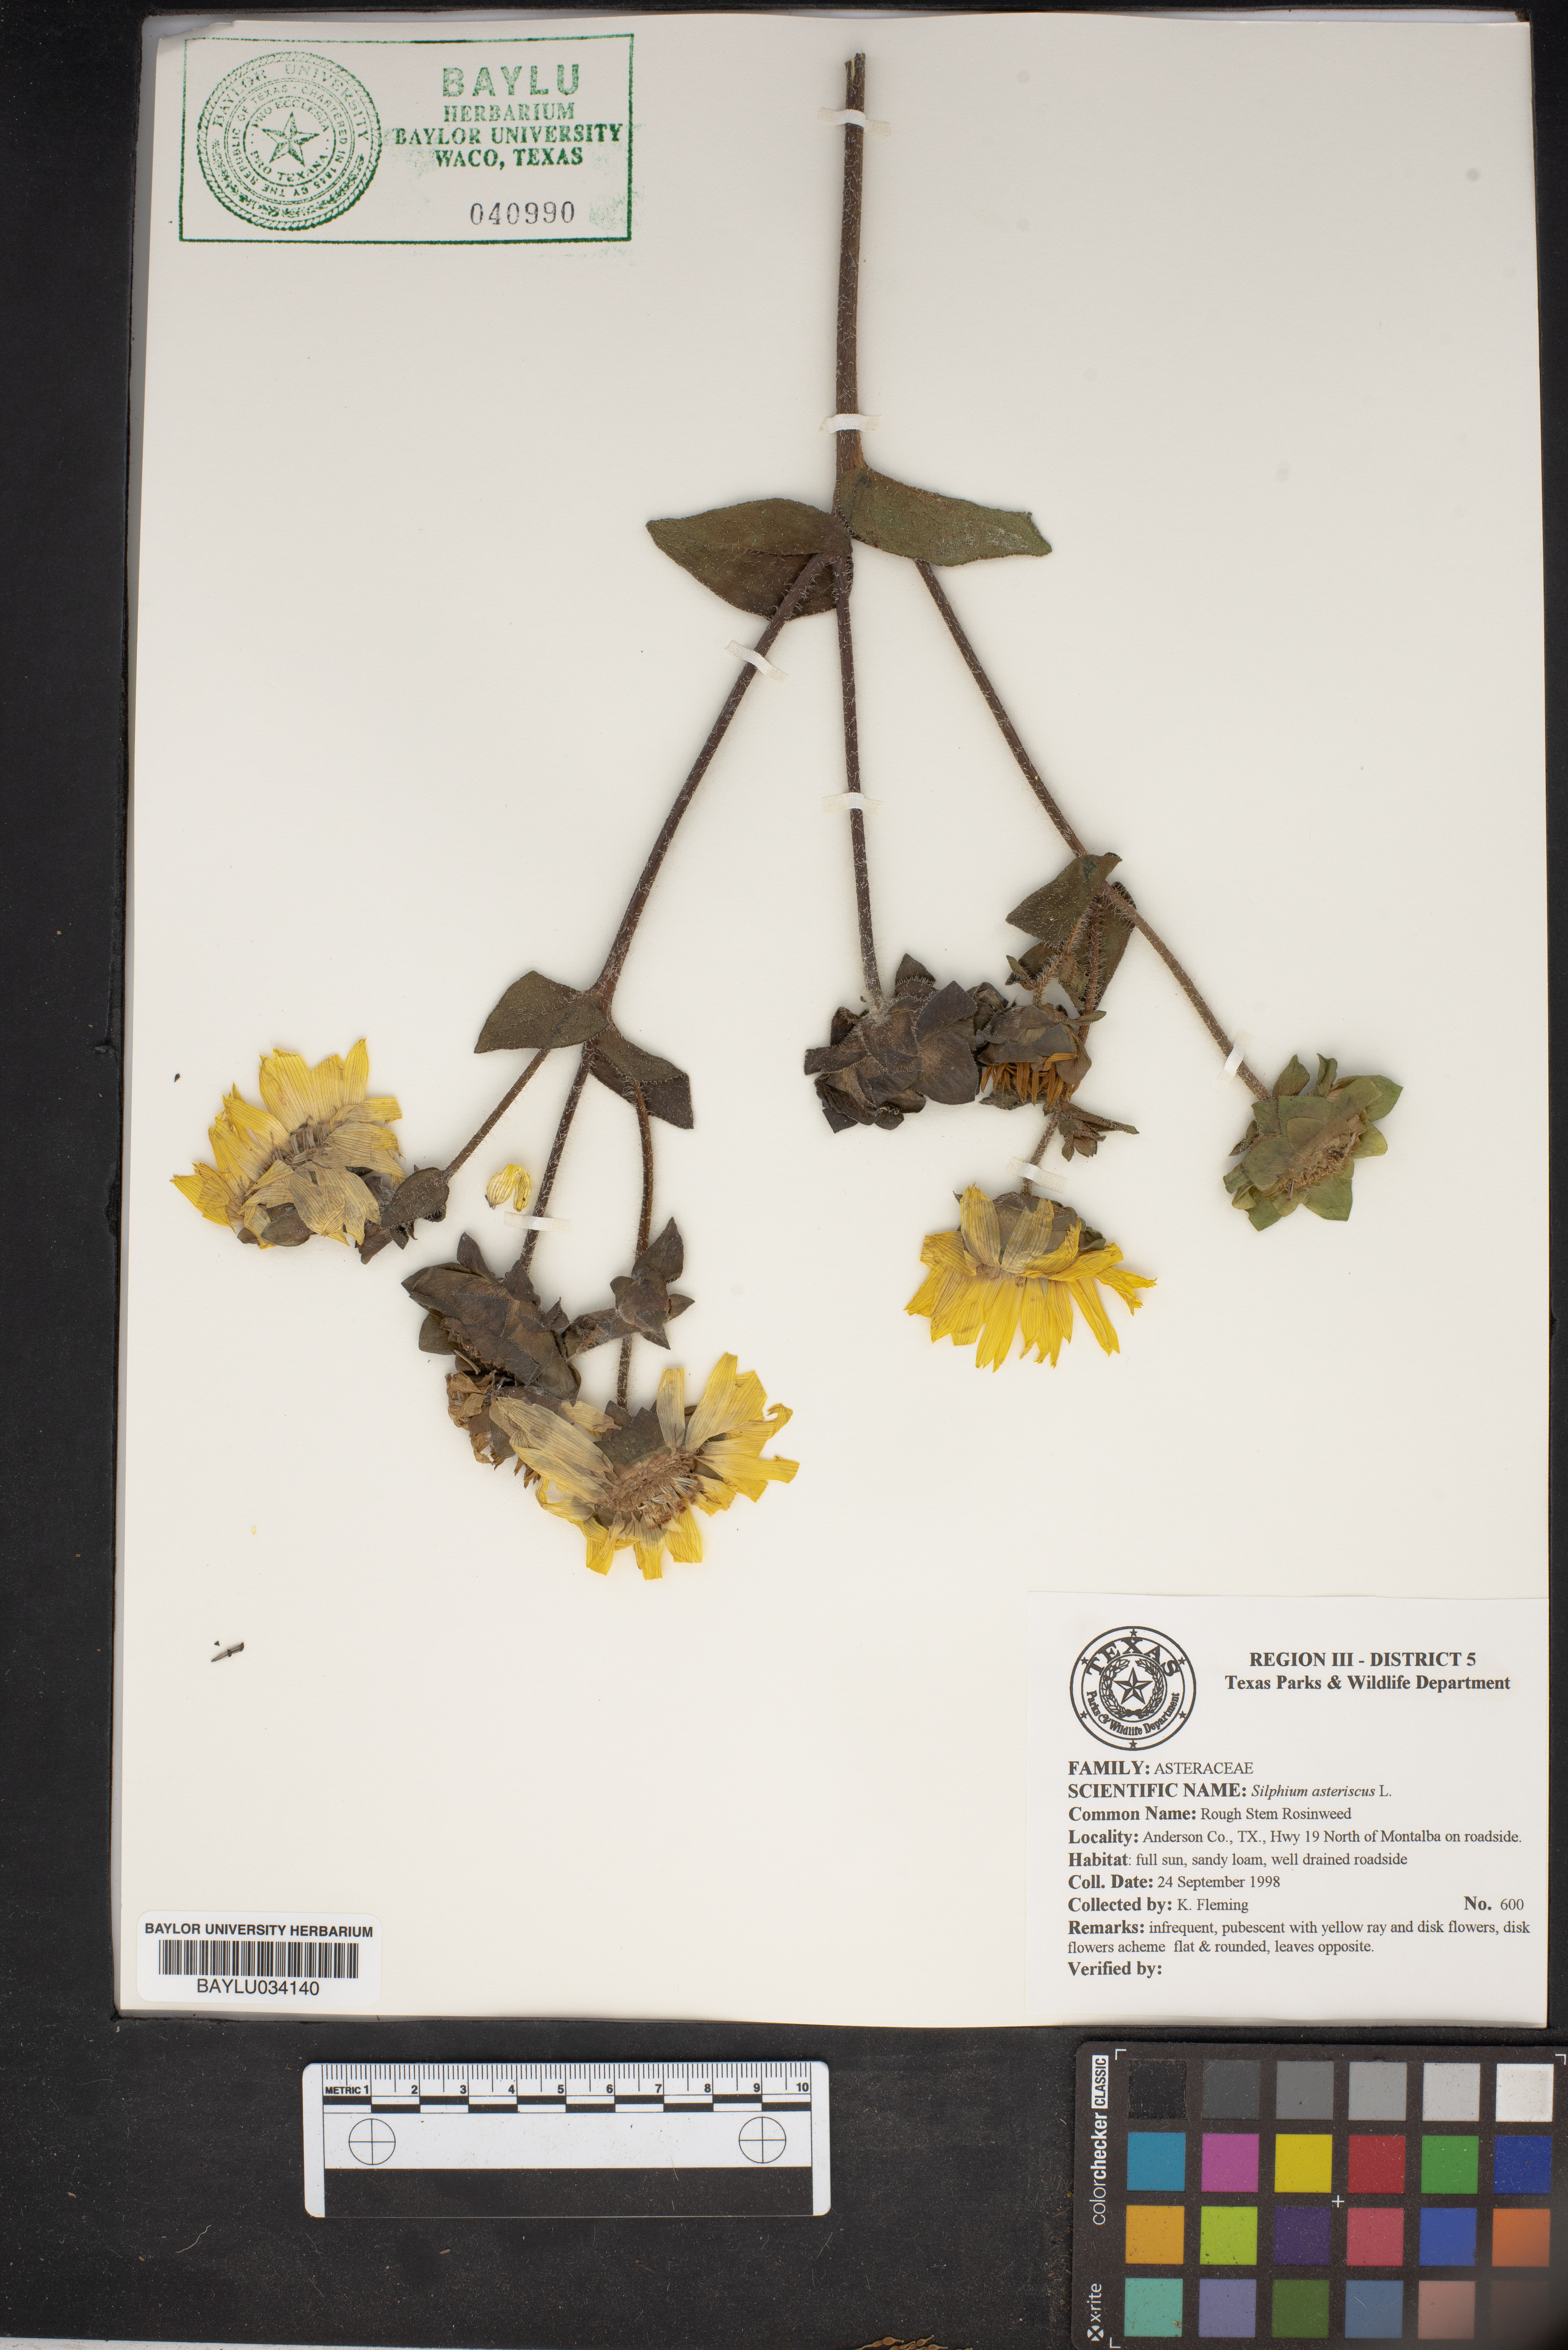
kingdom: Plantae
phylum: Tracheophyta
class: Magnoliopsida
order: Asterales
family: Asteraceae
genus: Silphium
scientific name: Silphium asteriscus
